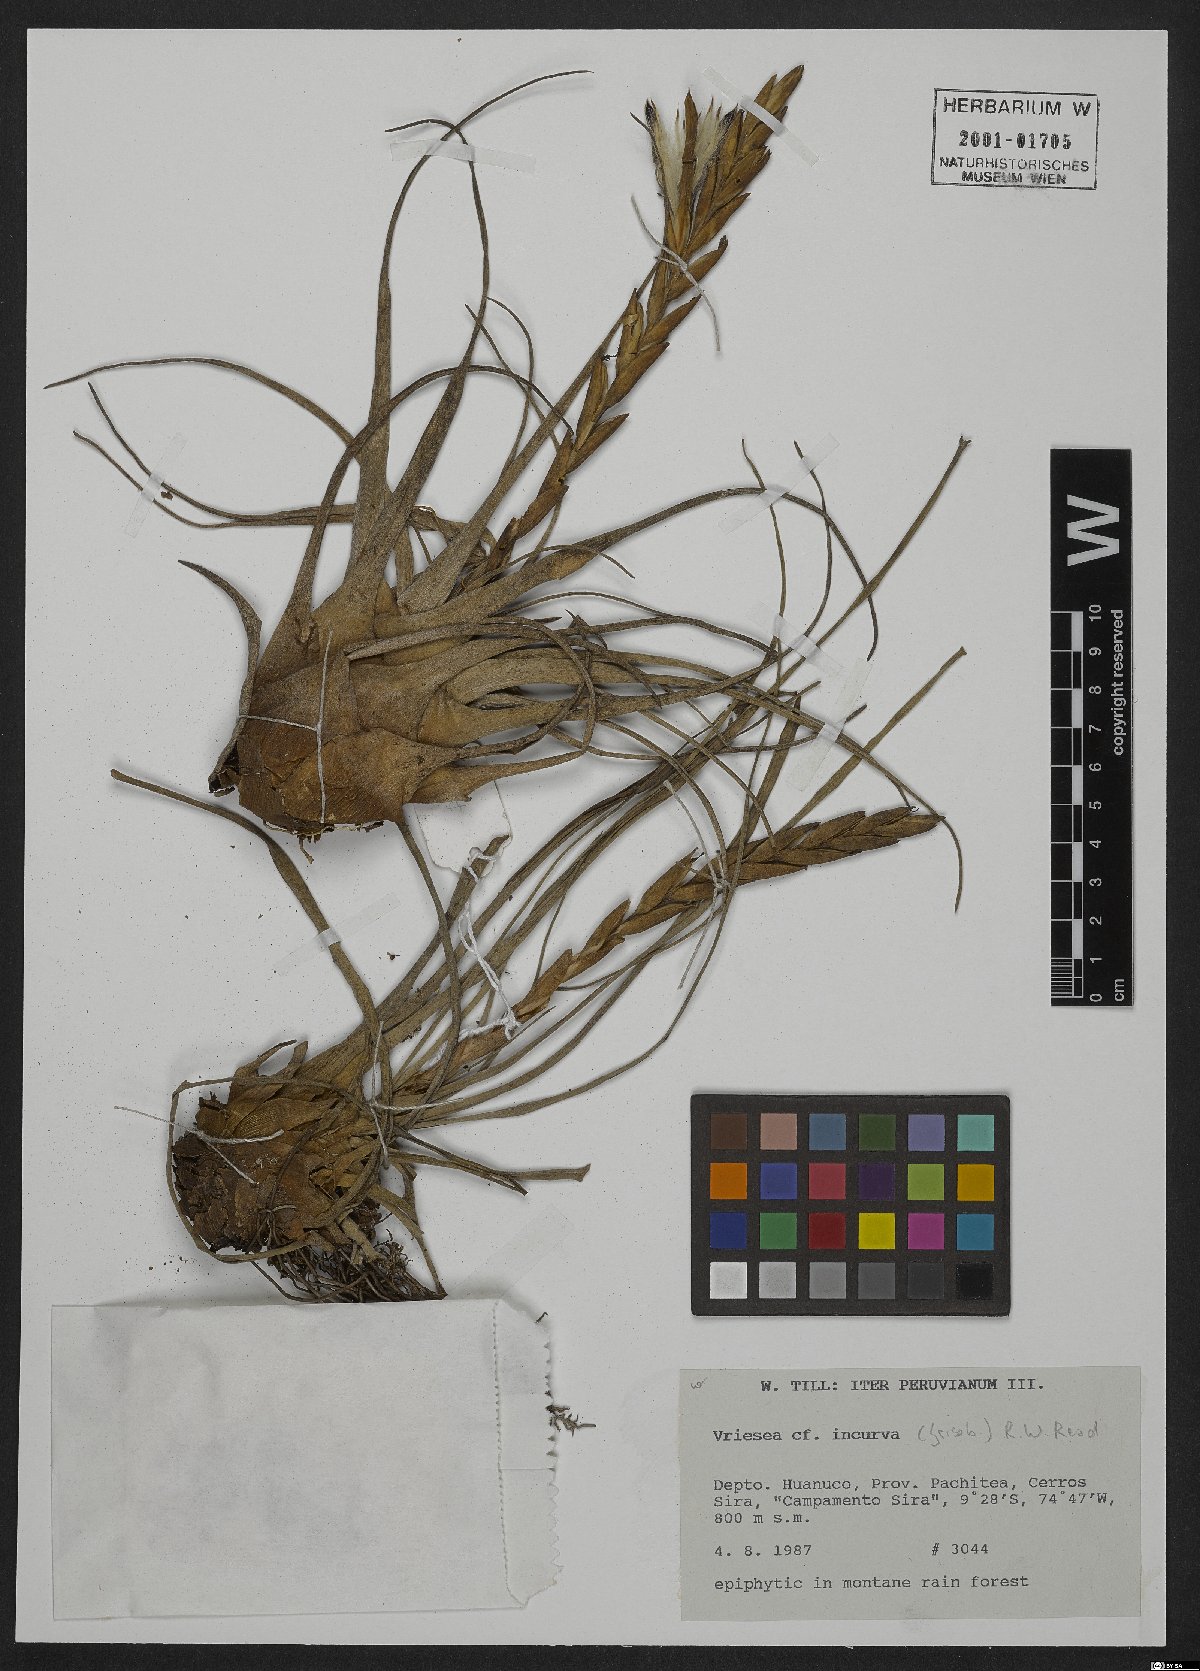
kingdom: Plantae
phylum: Tracheophyta
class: Liliopsida
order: Poales
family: Bromeliaceae
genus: Vriesea
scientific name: Vriesea incurva
